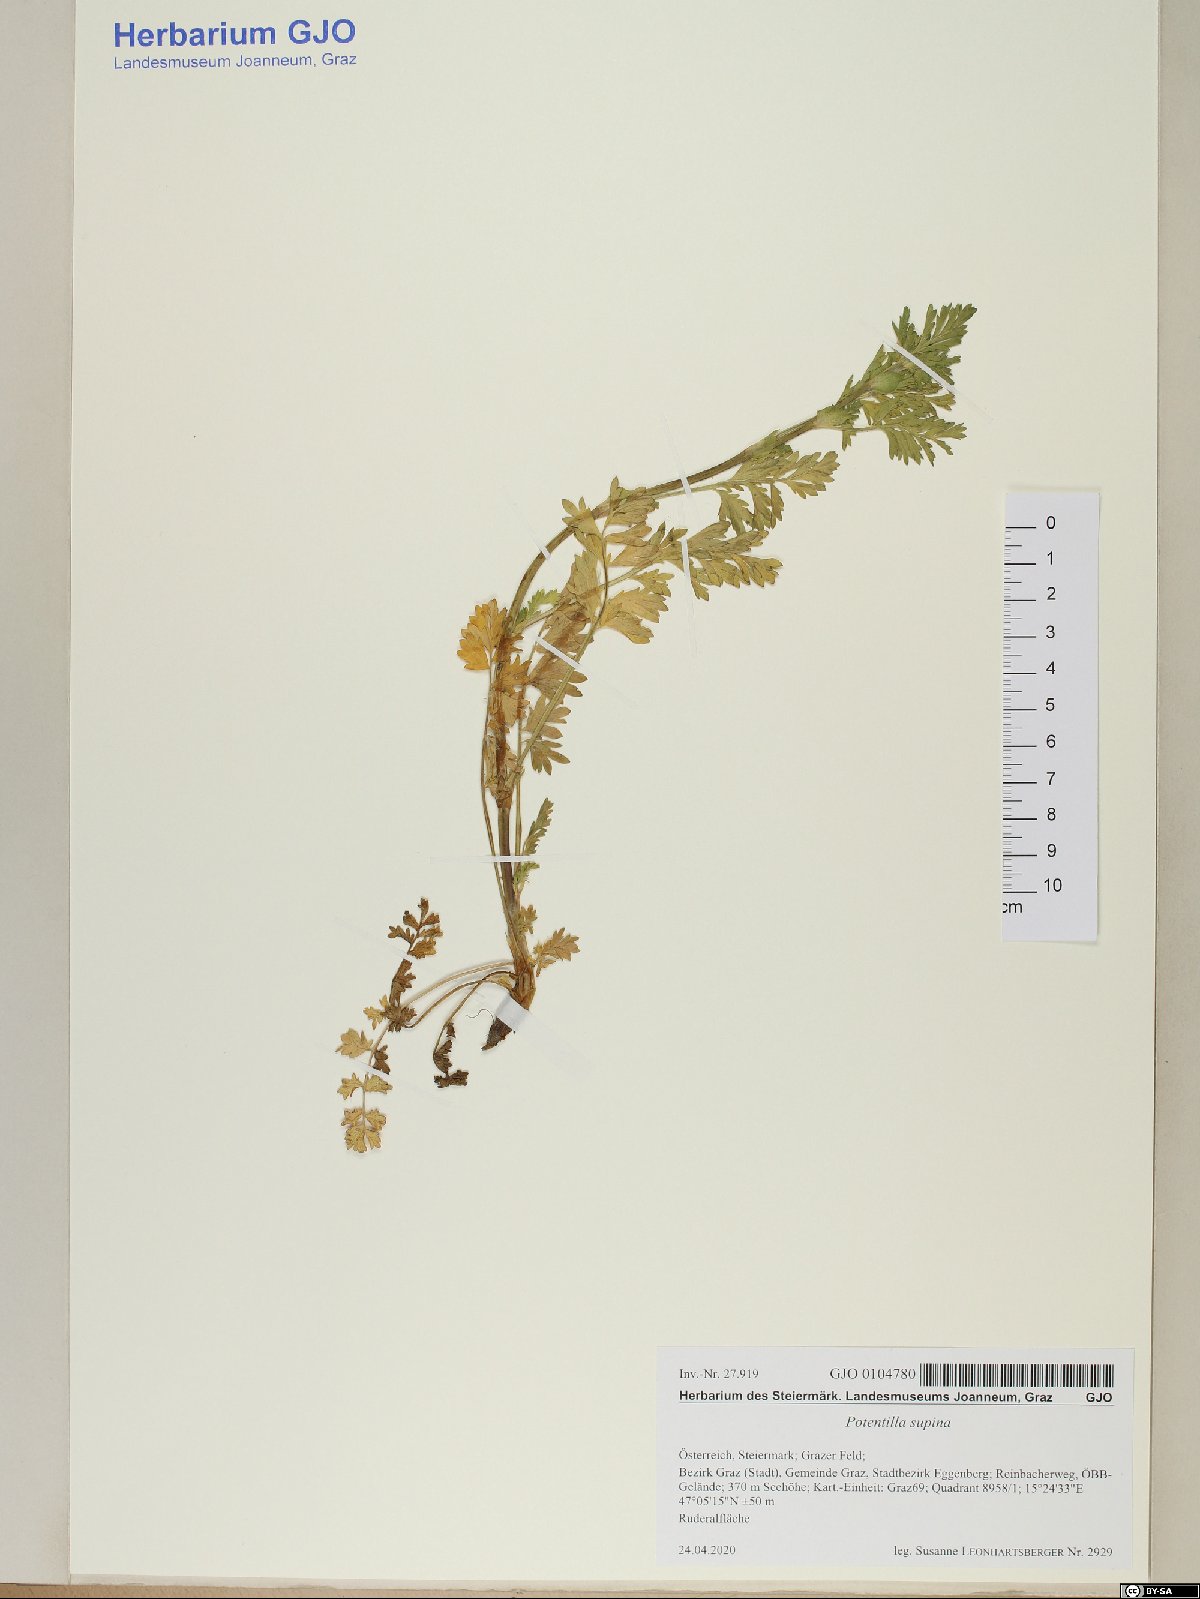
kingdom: Plantae
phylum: Tracheophyta
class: Magnoliopsida
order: Rosales
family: Rosaceae
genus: Potentilla
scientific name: Potentilla supina
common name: Prostrate cinquefoil
